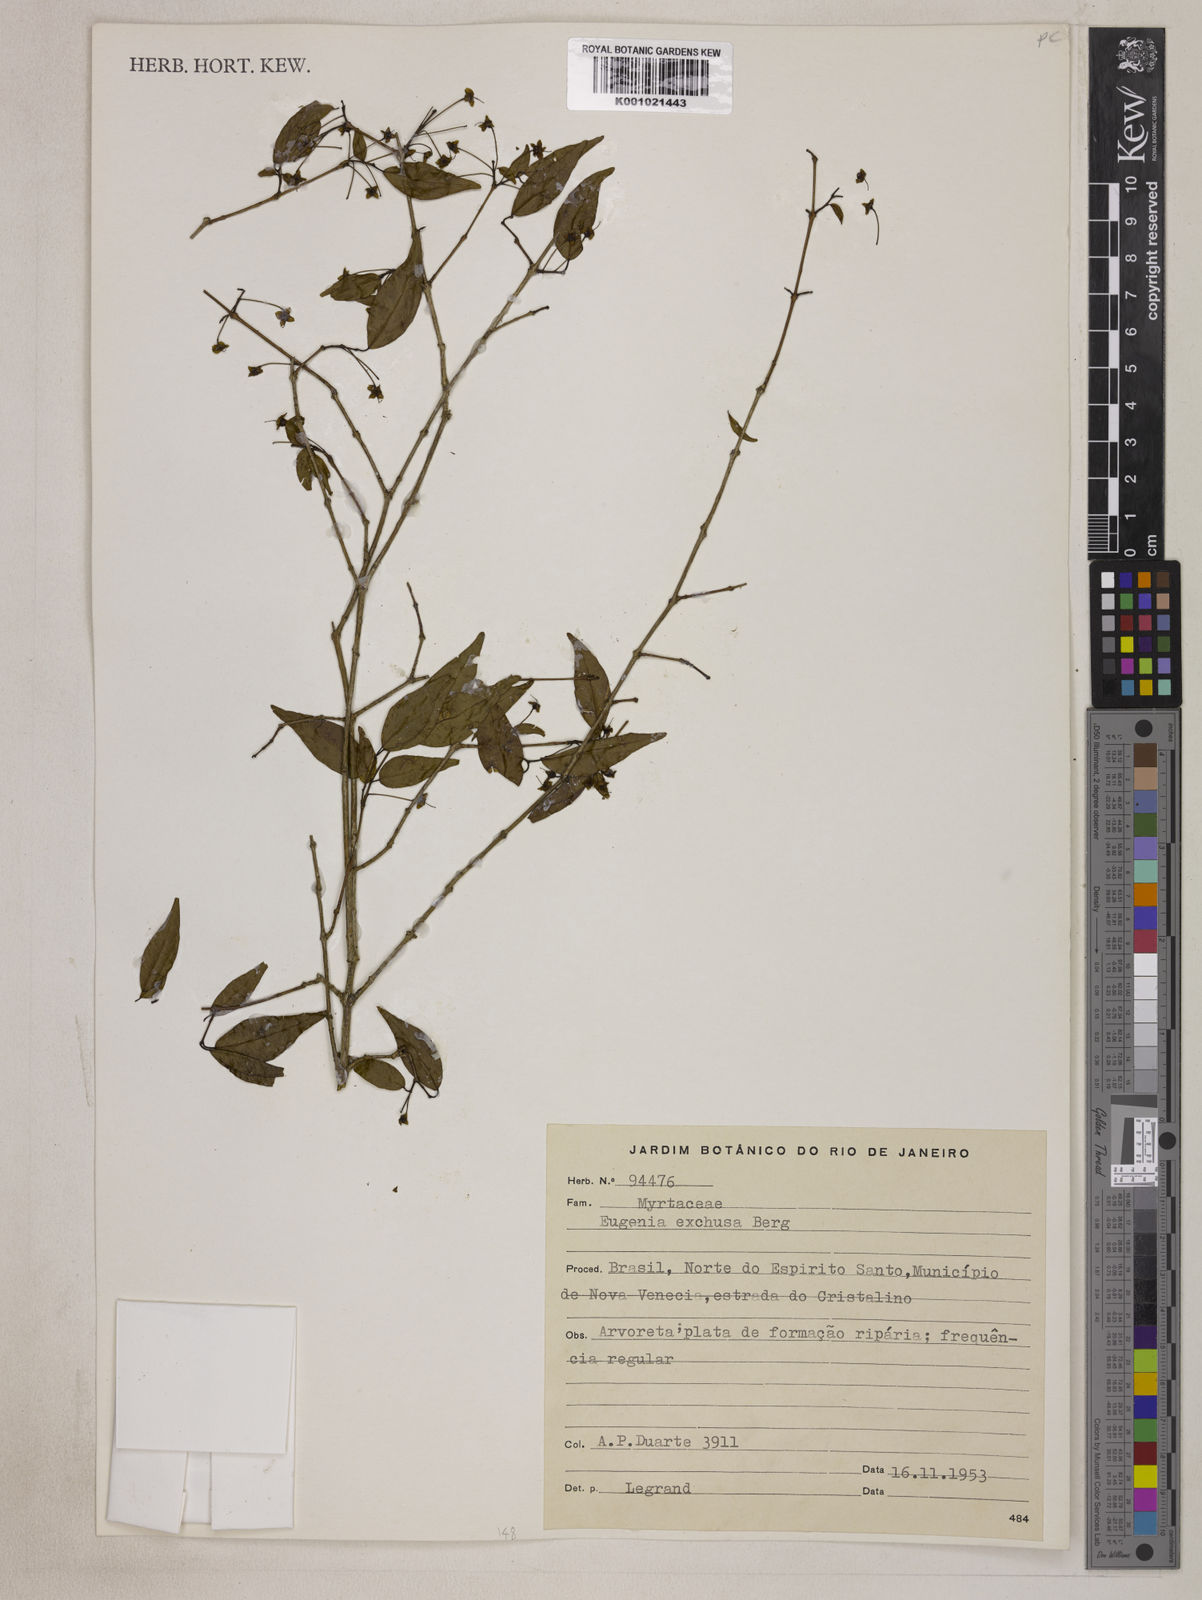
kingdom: Plantae
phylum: Tracheophyta
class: Magnoliopsida
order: Myrtales
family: Myrtaceae
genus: Eugenia
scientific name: Eugenia arenaria
